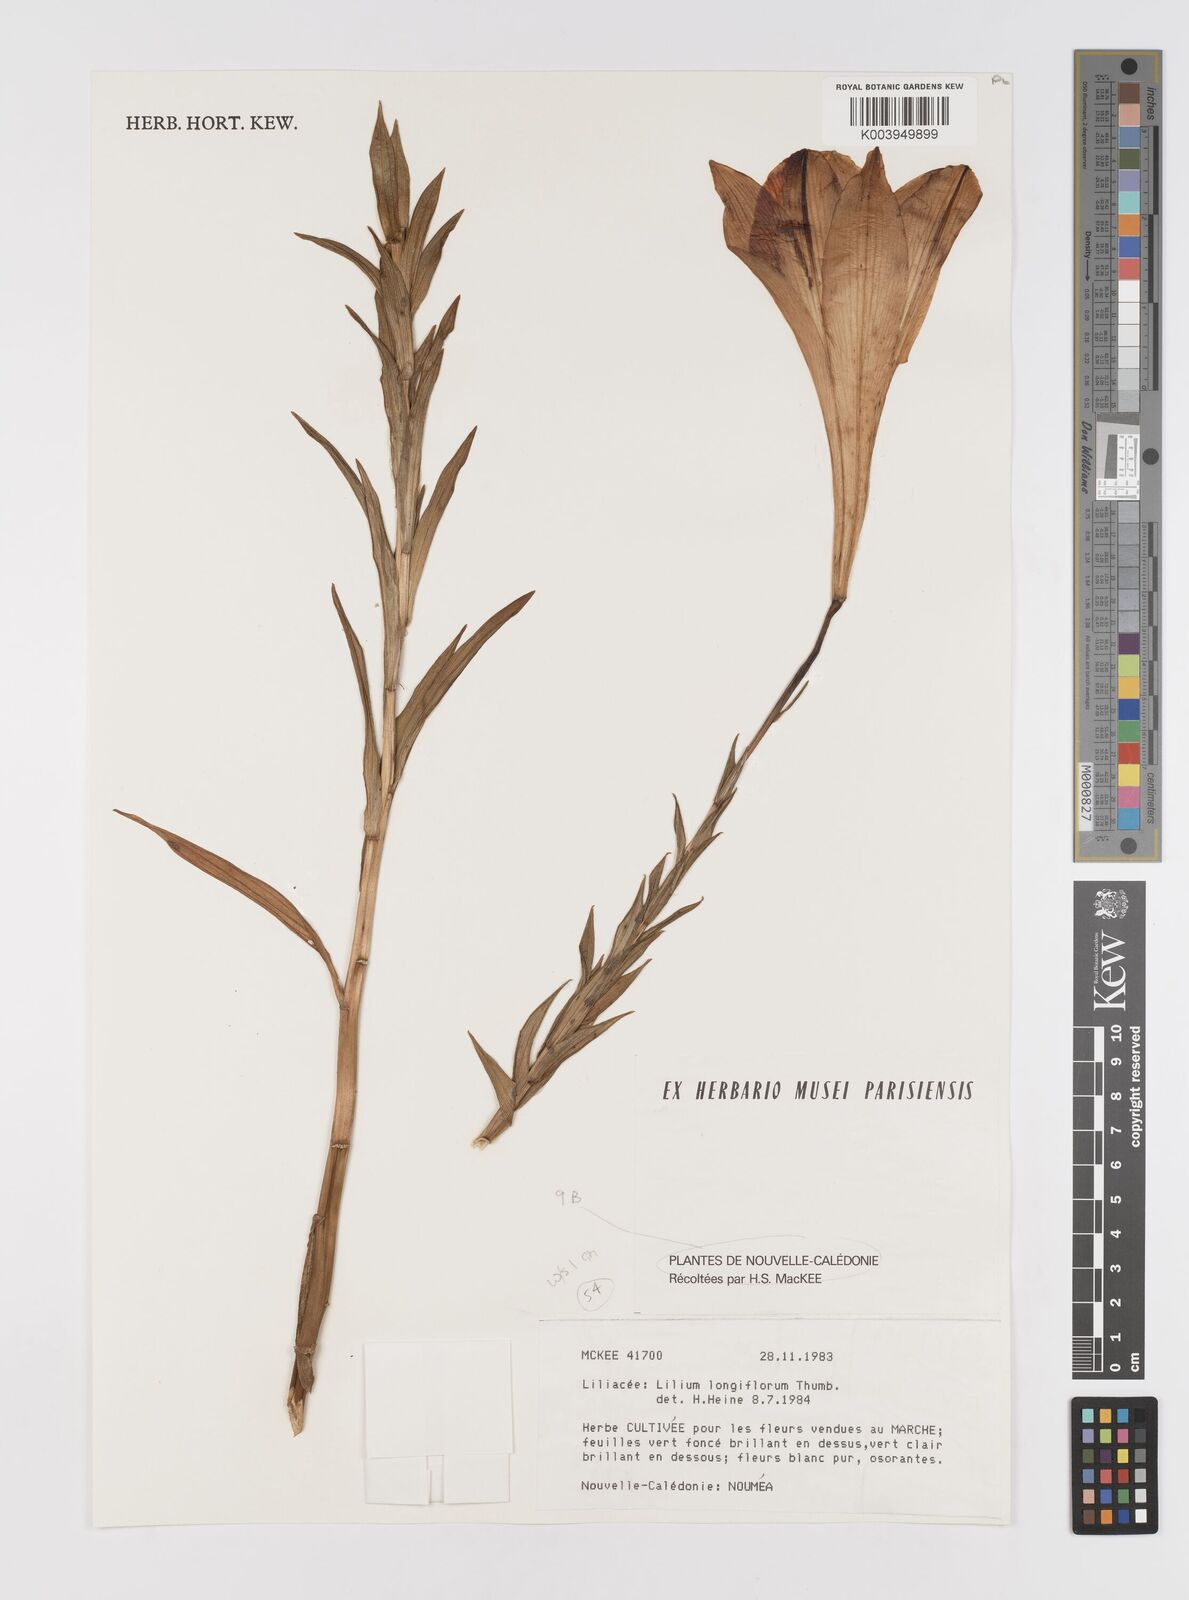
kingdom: Plantae
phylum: Tracheophyta
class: Liliopsida
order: Liliales
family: Liliaceae
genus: Lilium
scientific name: Lilium longiflorum
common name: Easter lily
